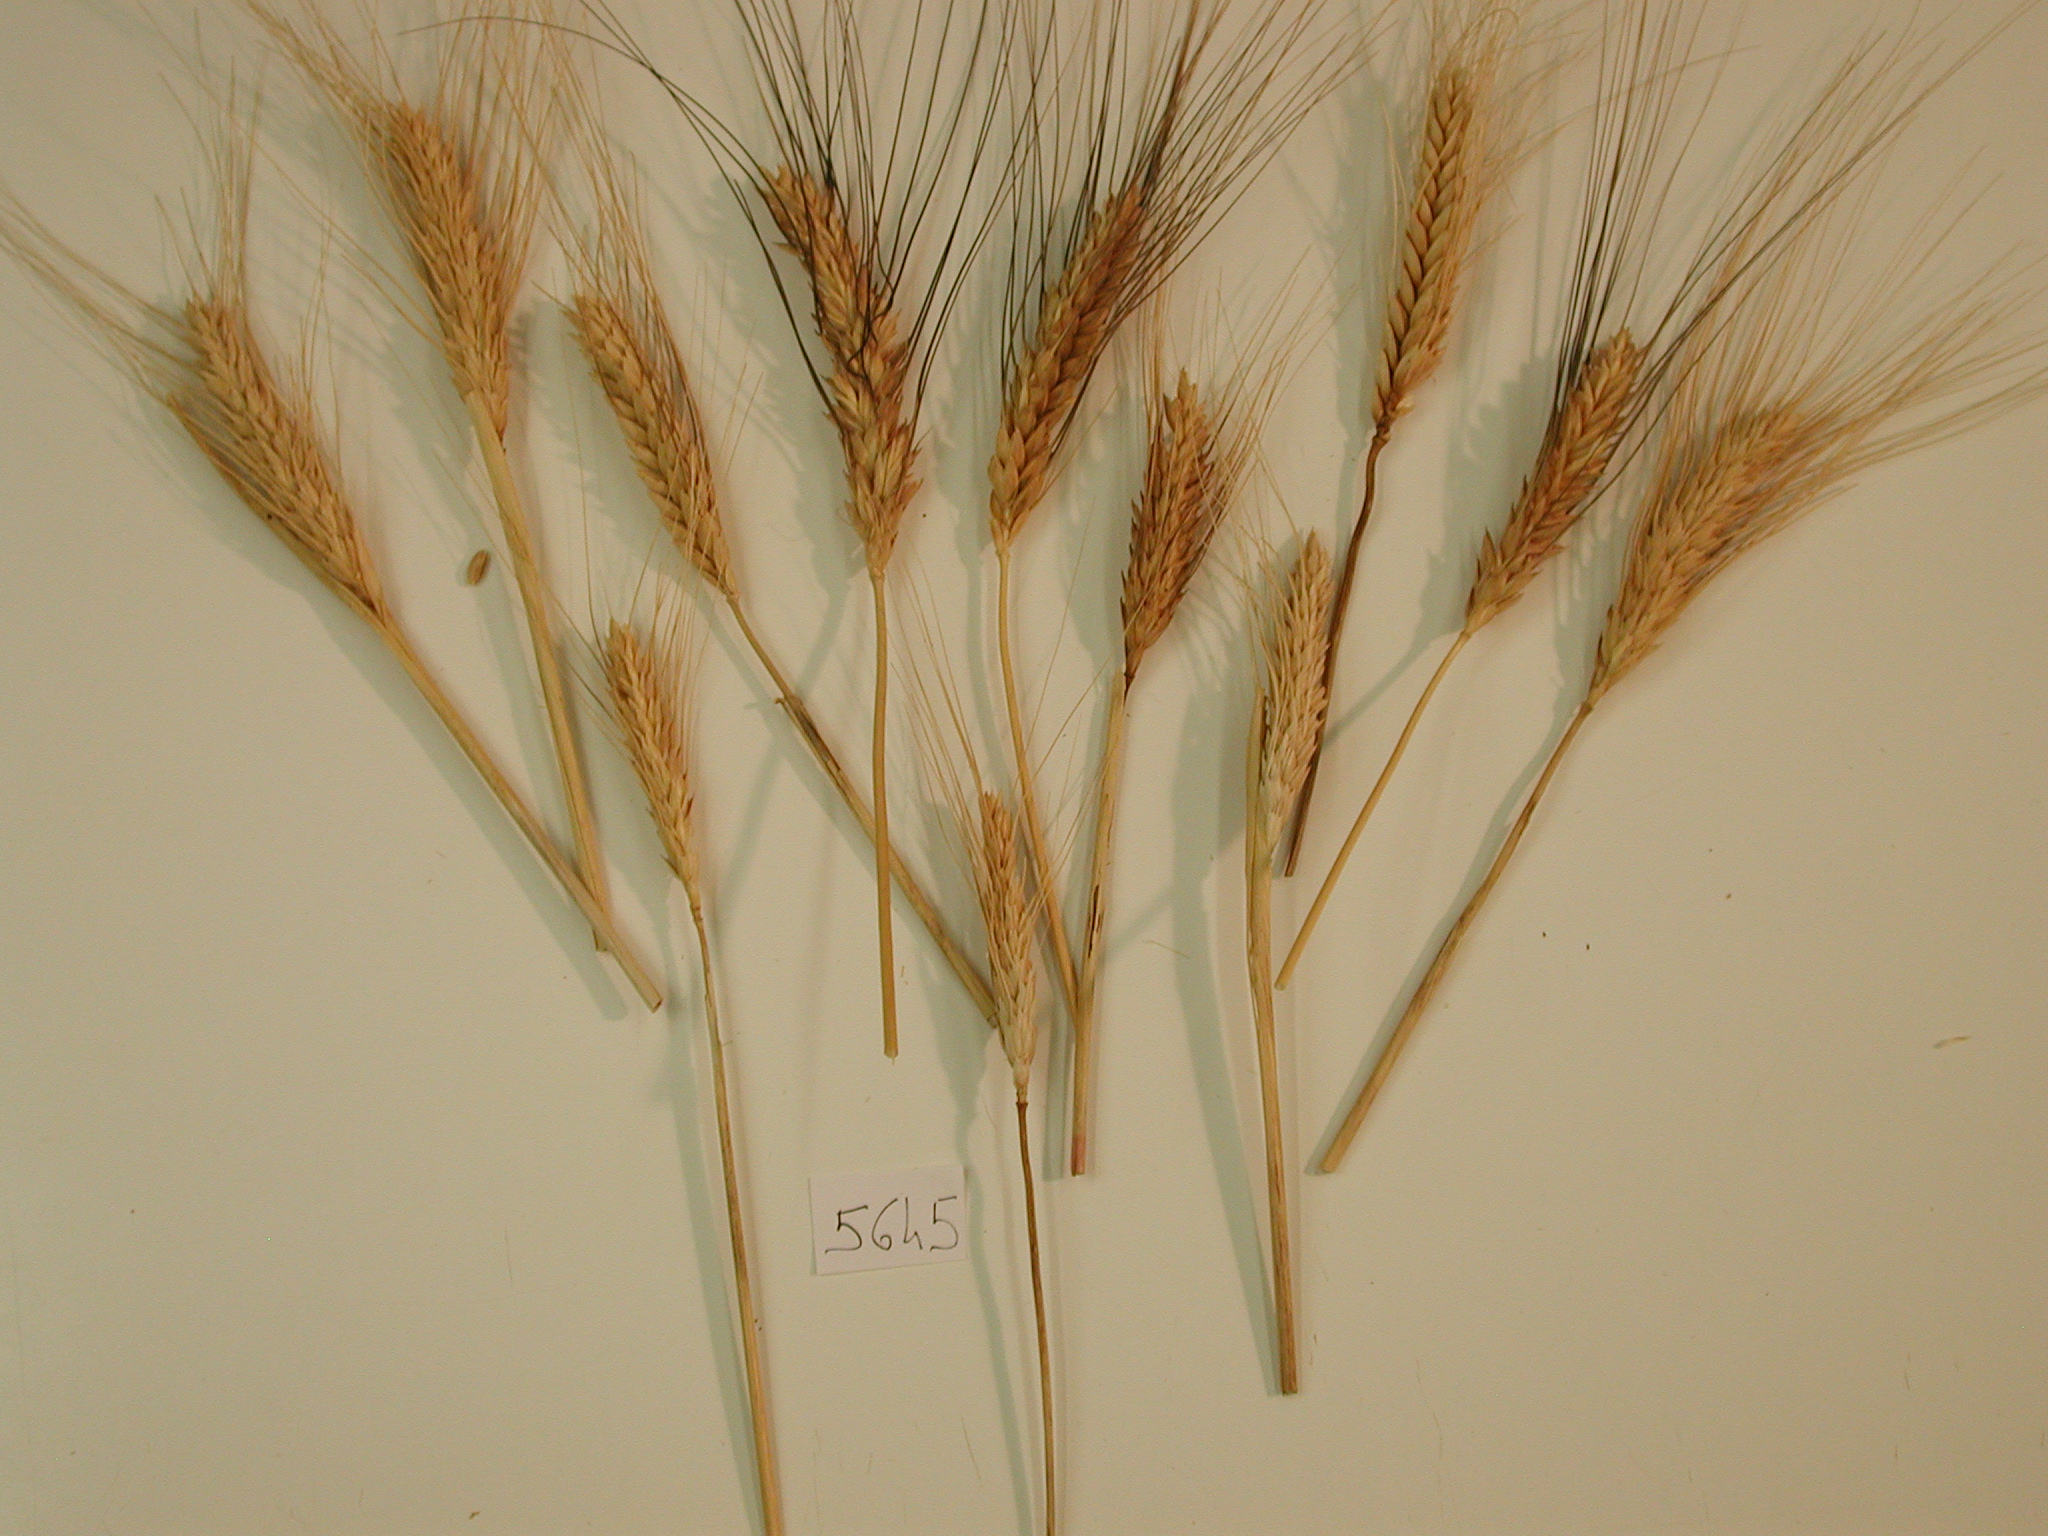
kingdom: Plantae
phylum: Tracheophyta
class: Liliopsida
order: Poales
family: Poaceae
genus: Triticum
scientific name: Triticum aestivum
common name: Wheat
